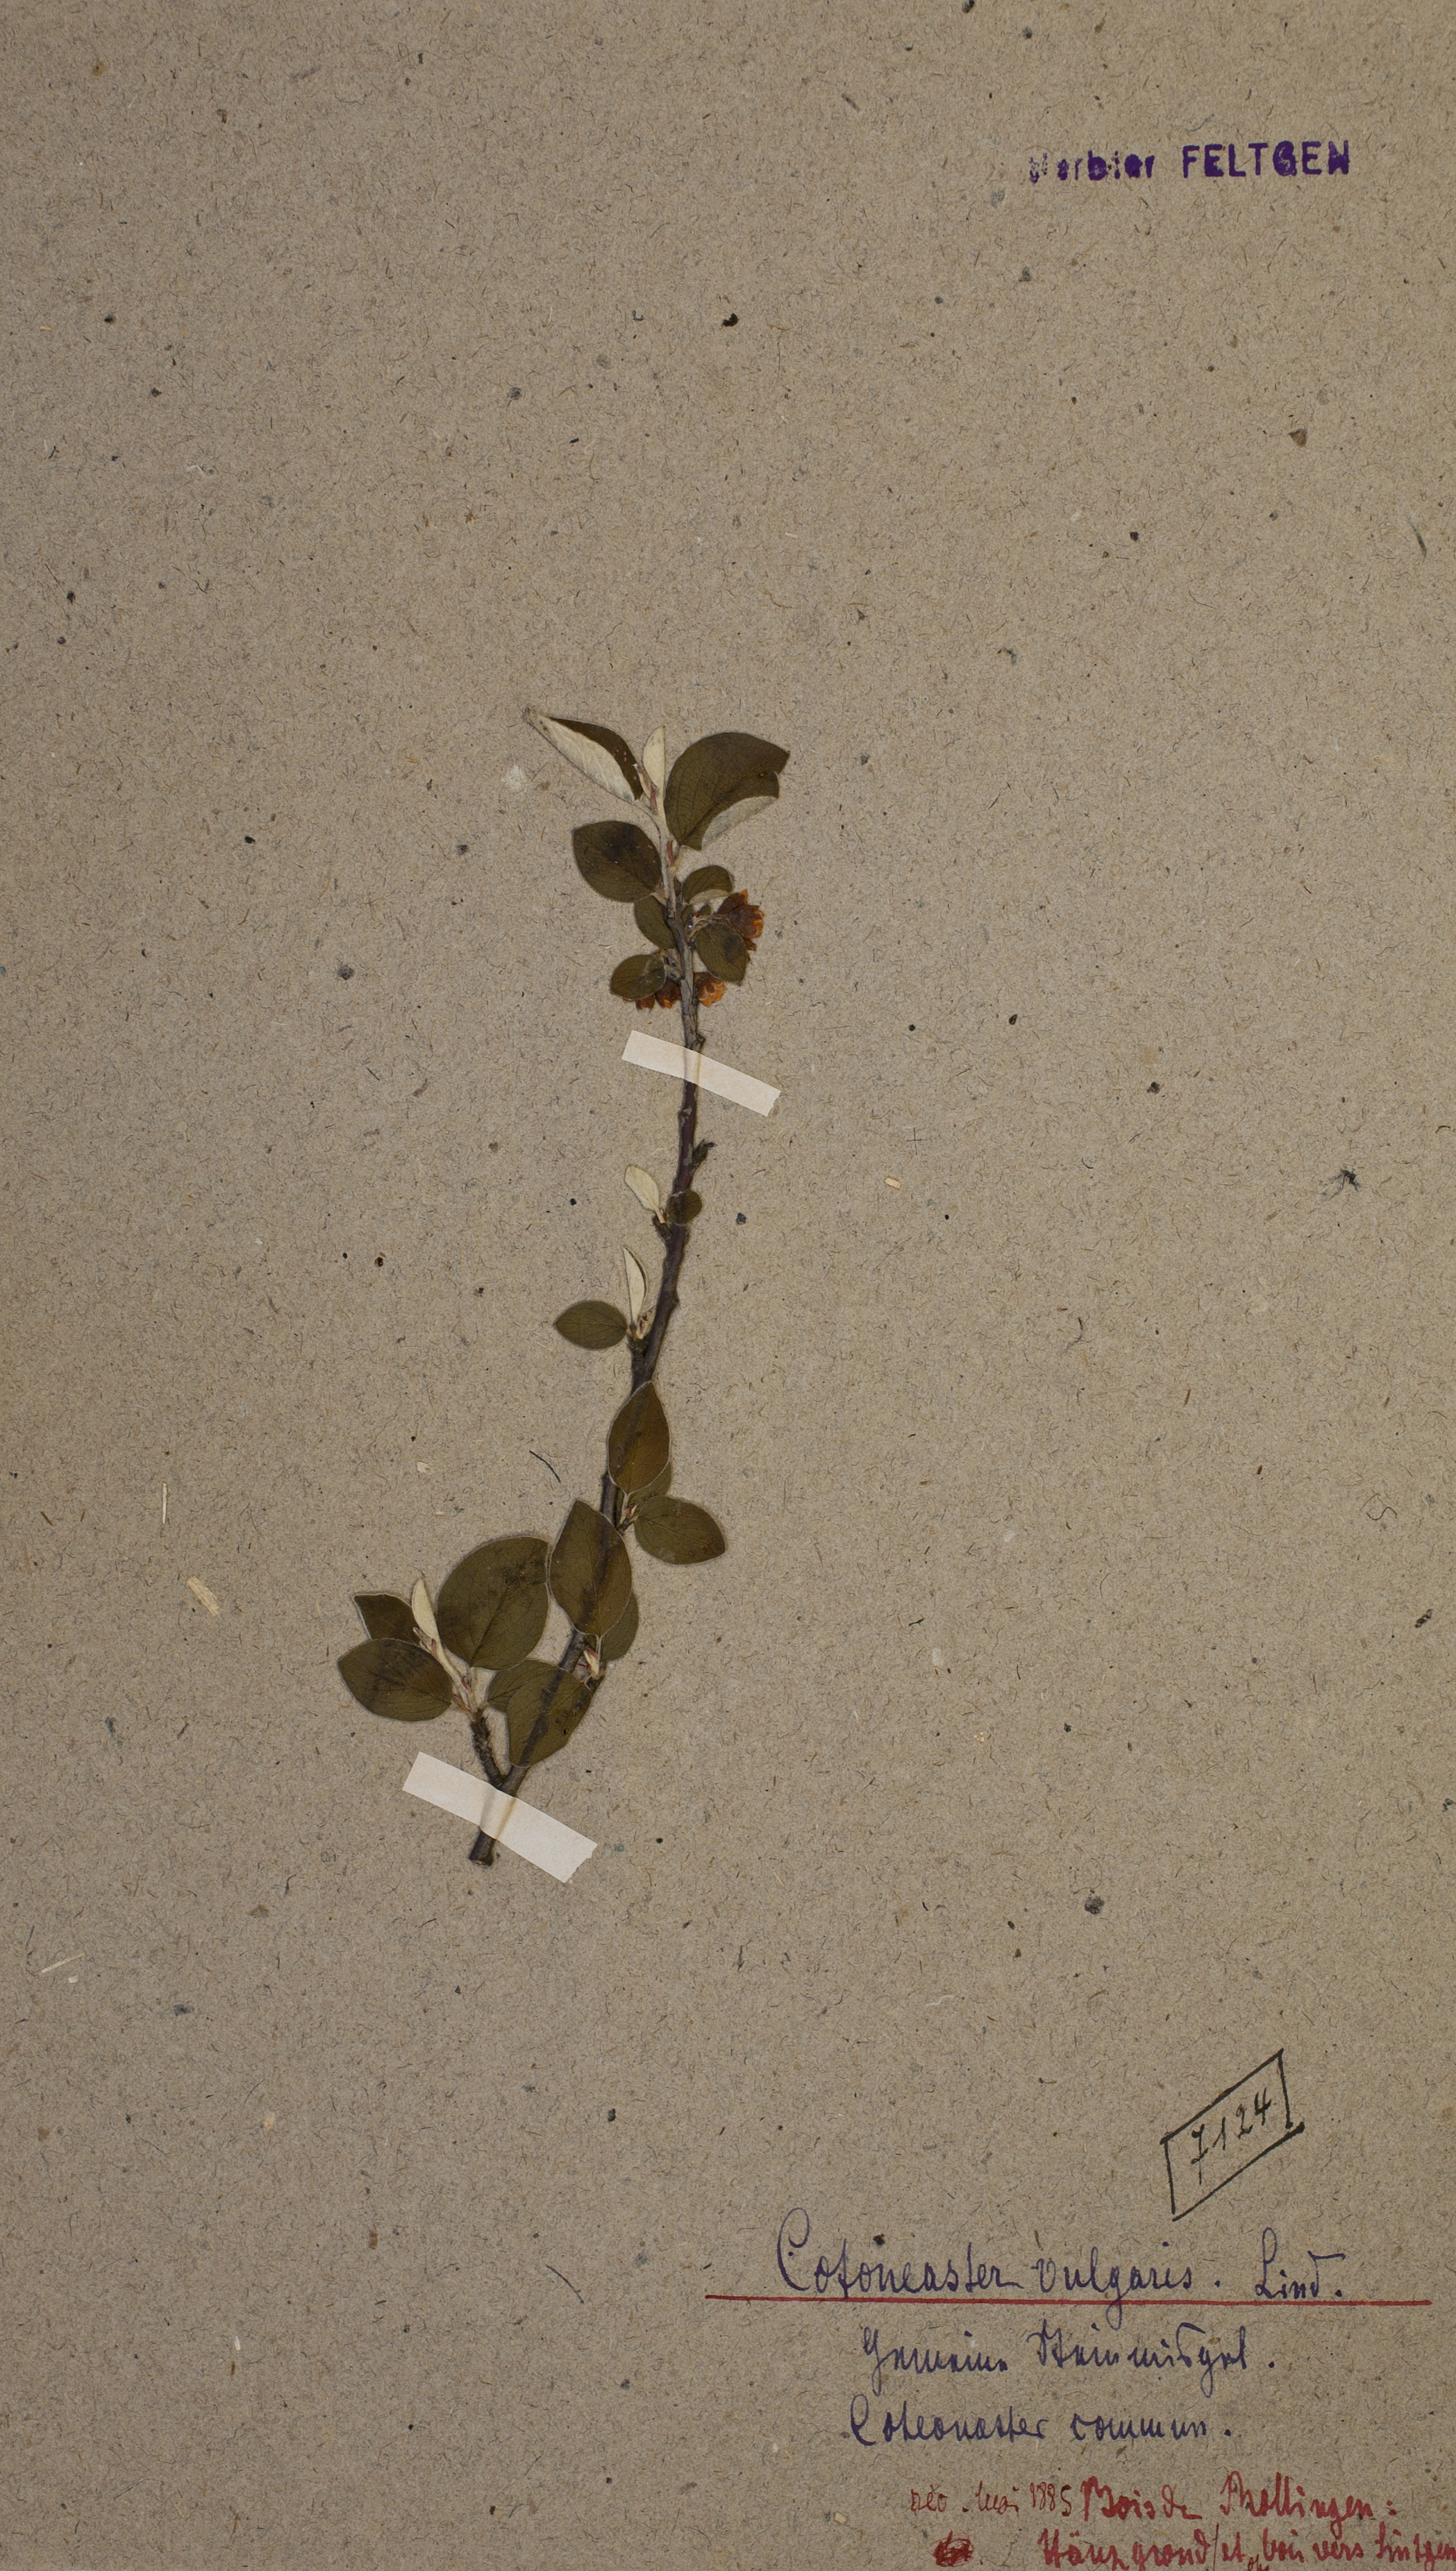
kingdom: Plantae
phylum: Tracheophyta
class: Magnoliopsida
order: Rosales
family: Rosaceae
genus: Cotoneaster
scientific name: Cotoneaster integerrimus
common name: Wild cotoneaster
